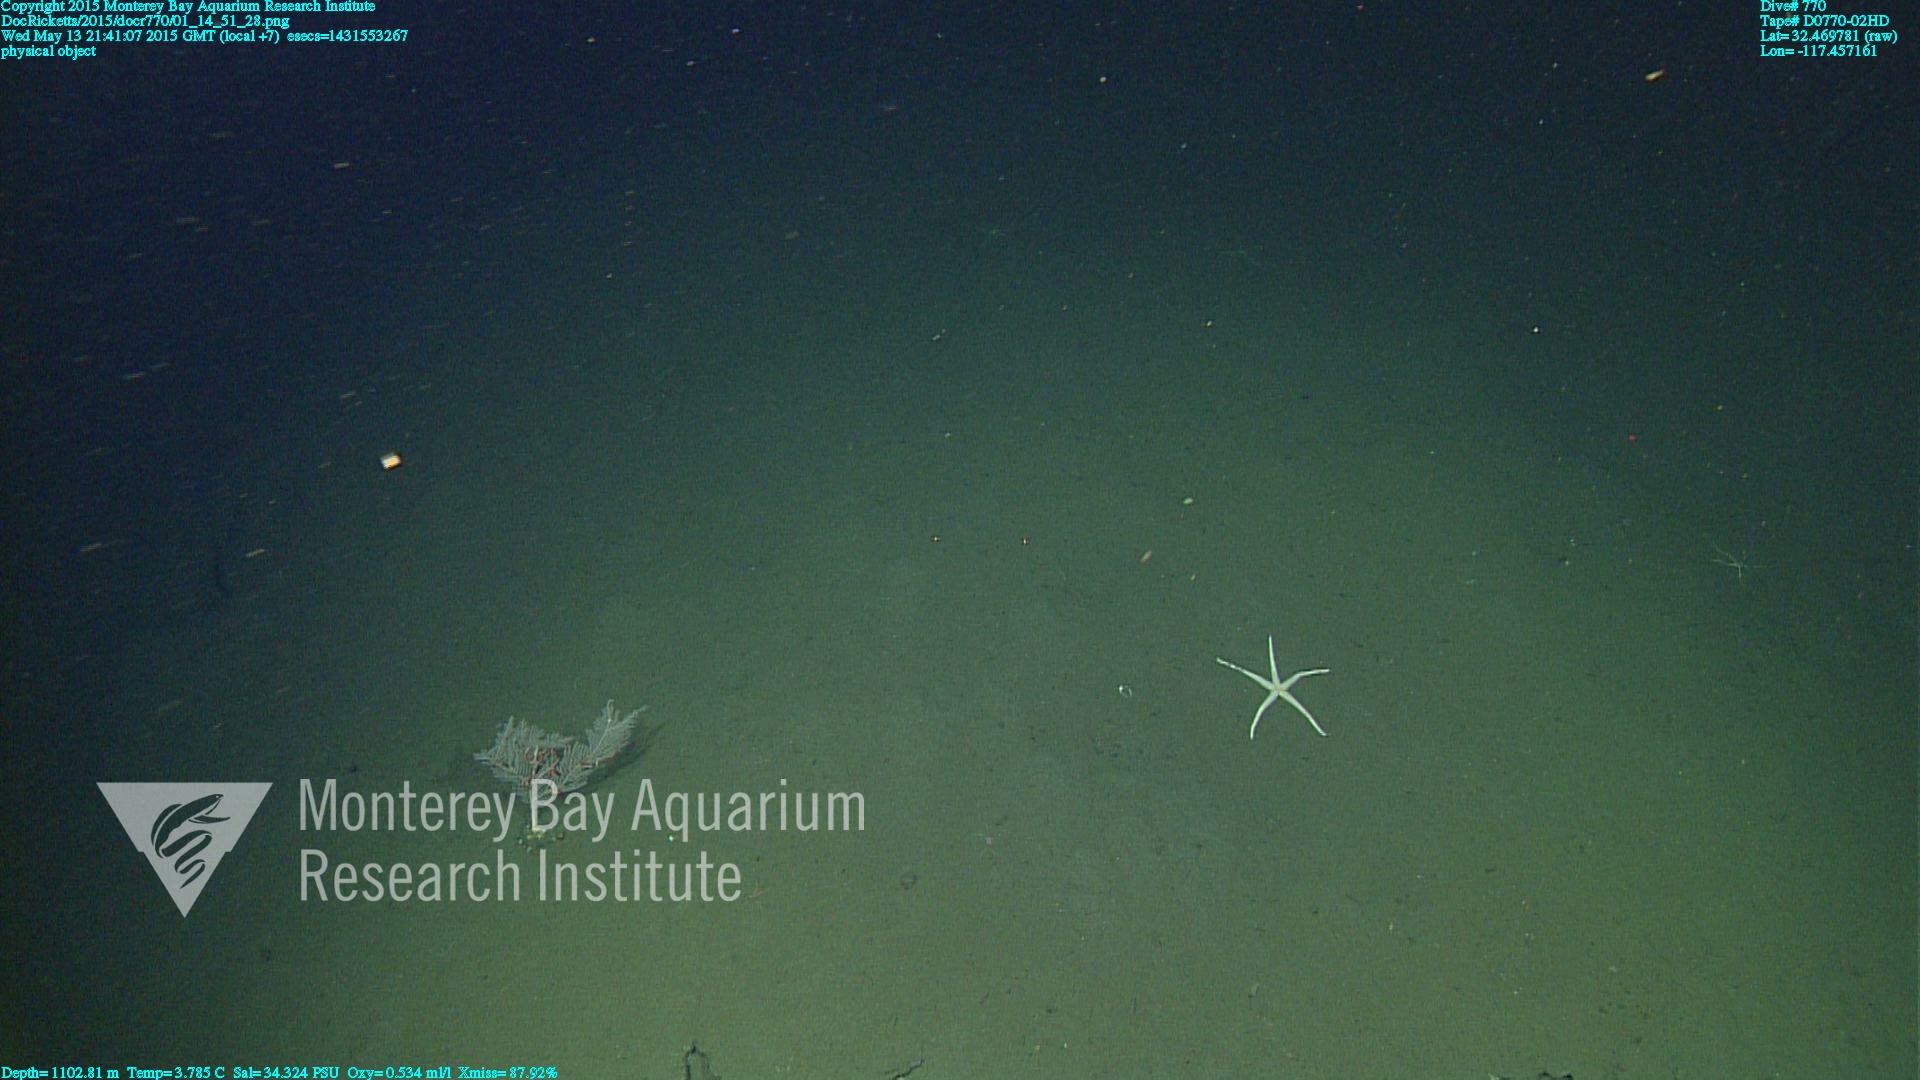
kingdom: Animalia
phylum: Cnidaria
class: Anthozoa
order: Scleralcyonacea
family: Primnoidae
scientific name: Primnoidae
